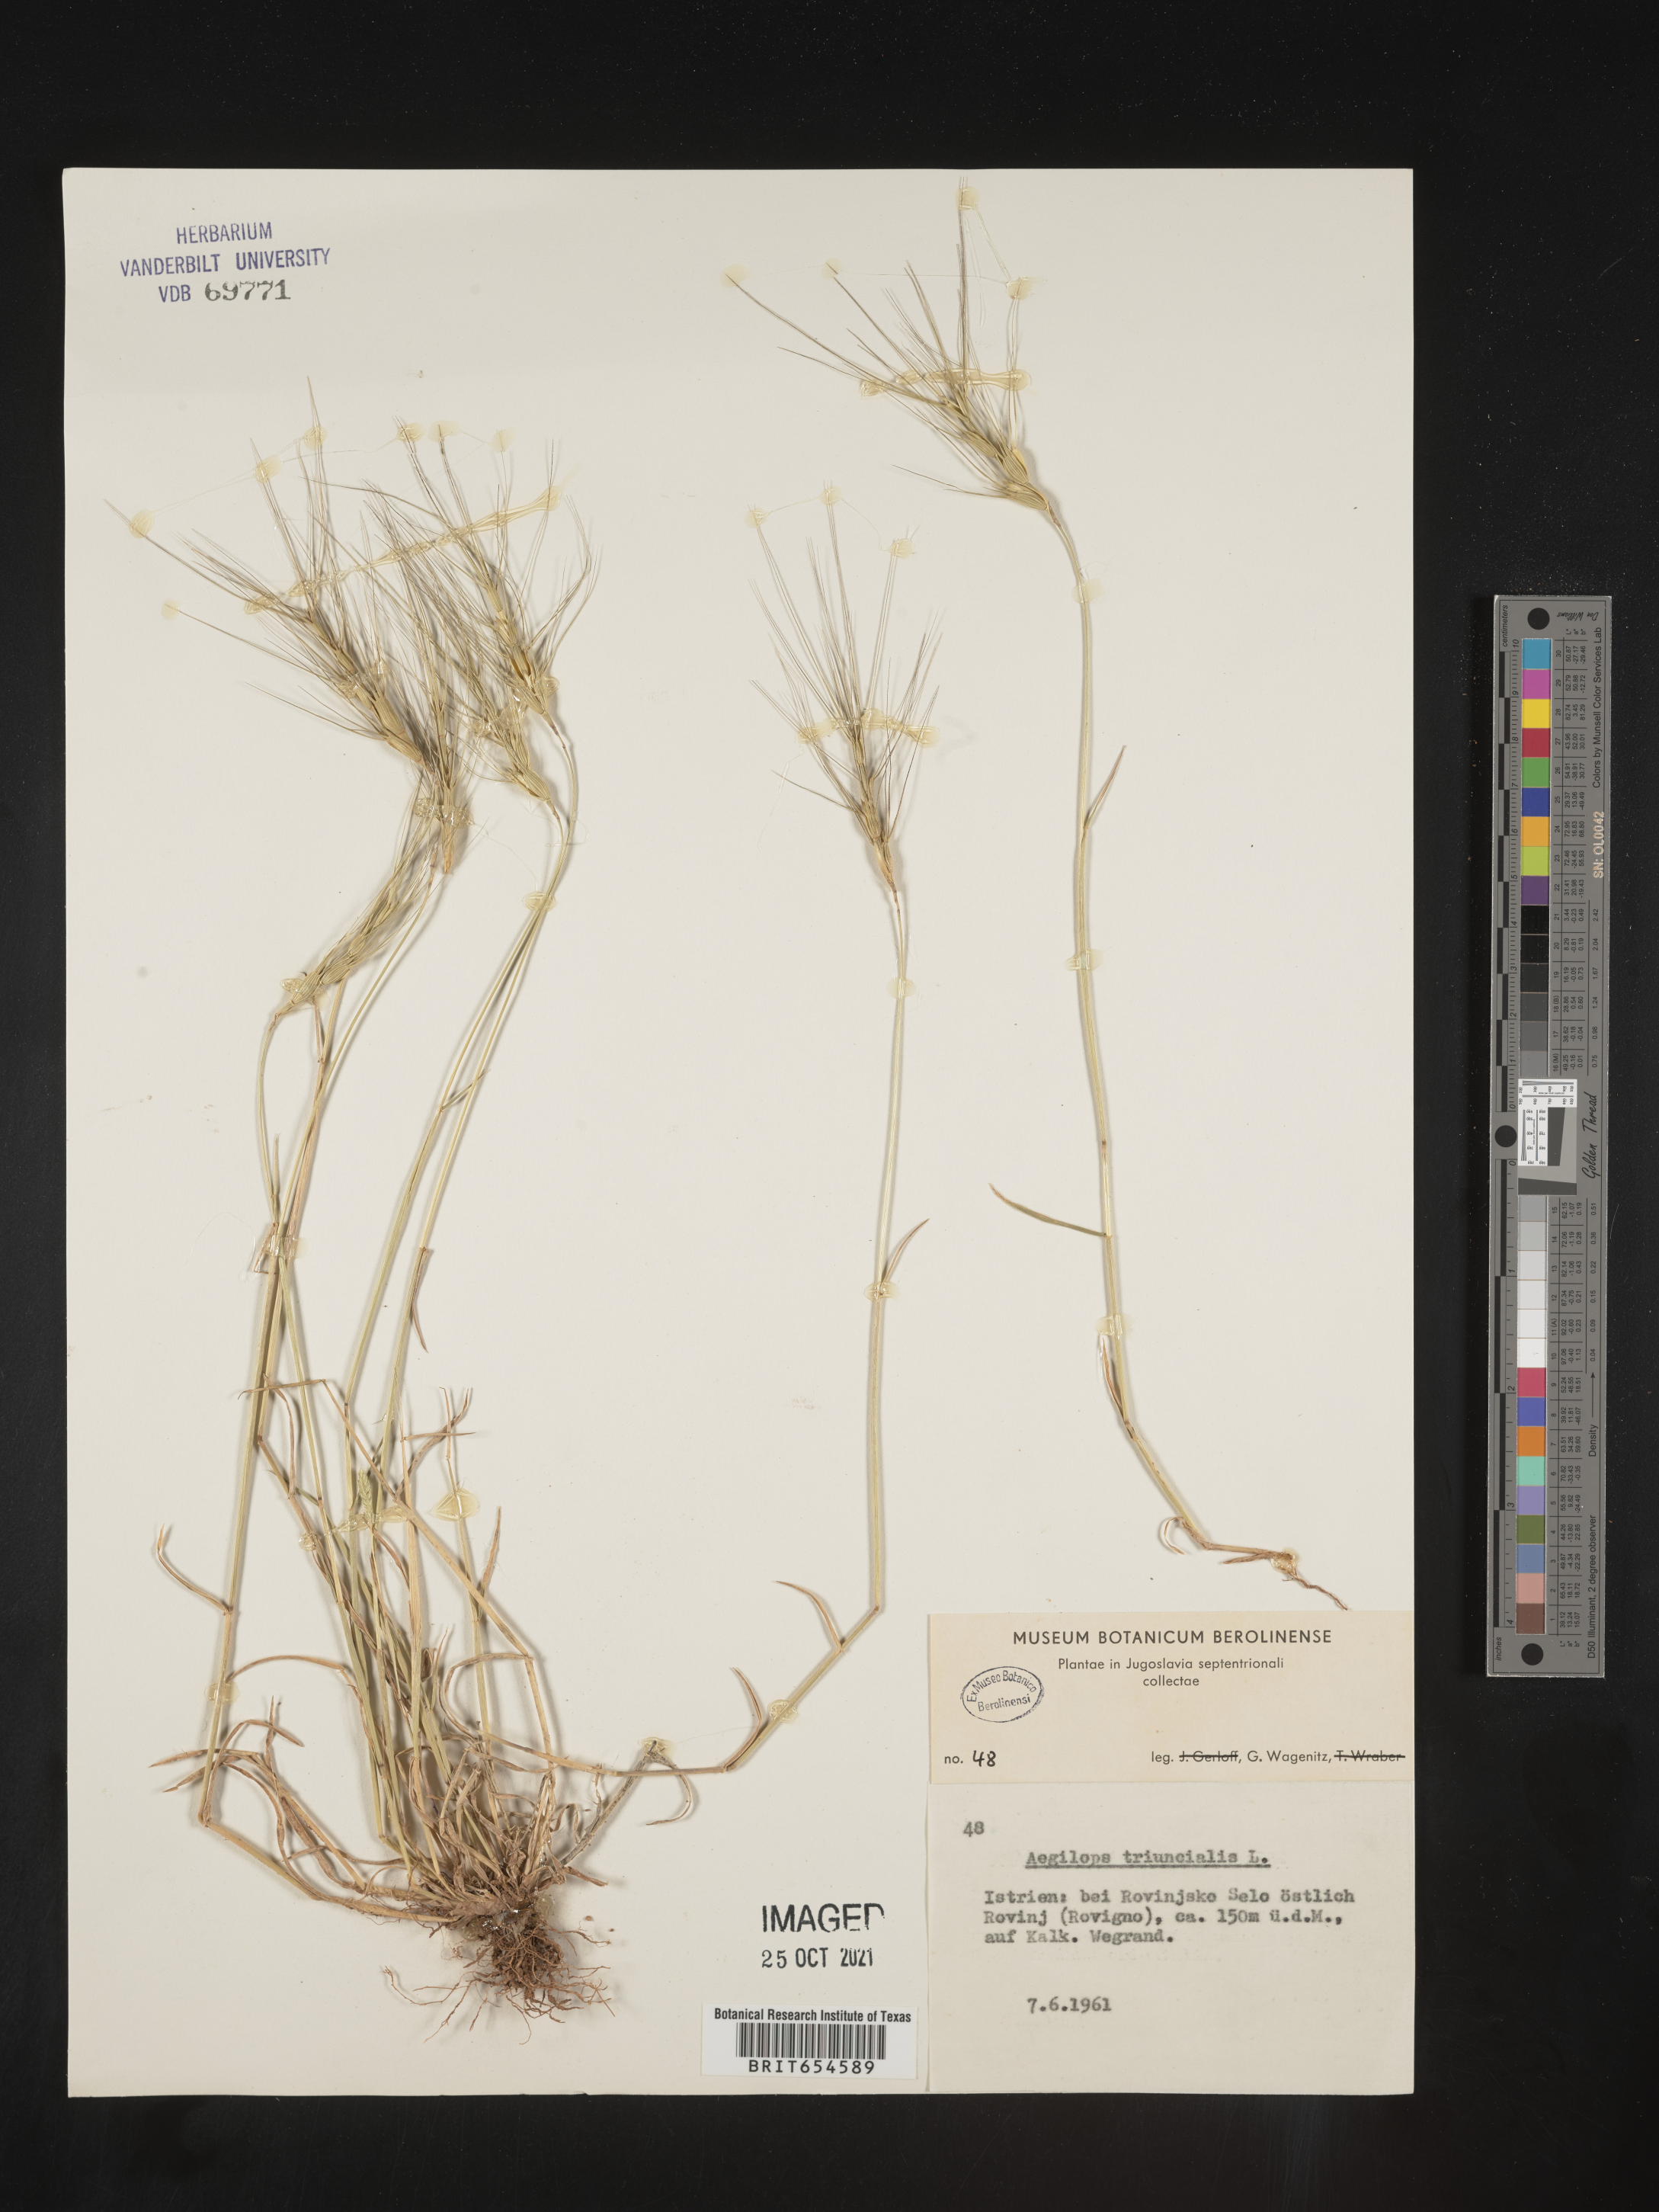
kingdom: Plantae
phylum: Tracheophyta
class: Liliopsida
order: Poales
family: Poaceae
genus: Aegilops
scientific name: Aegilops
